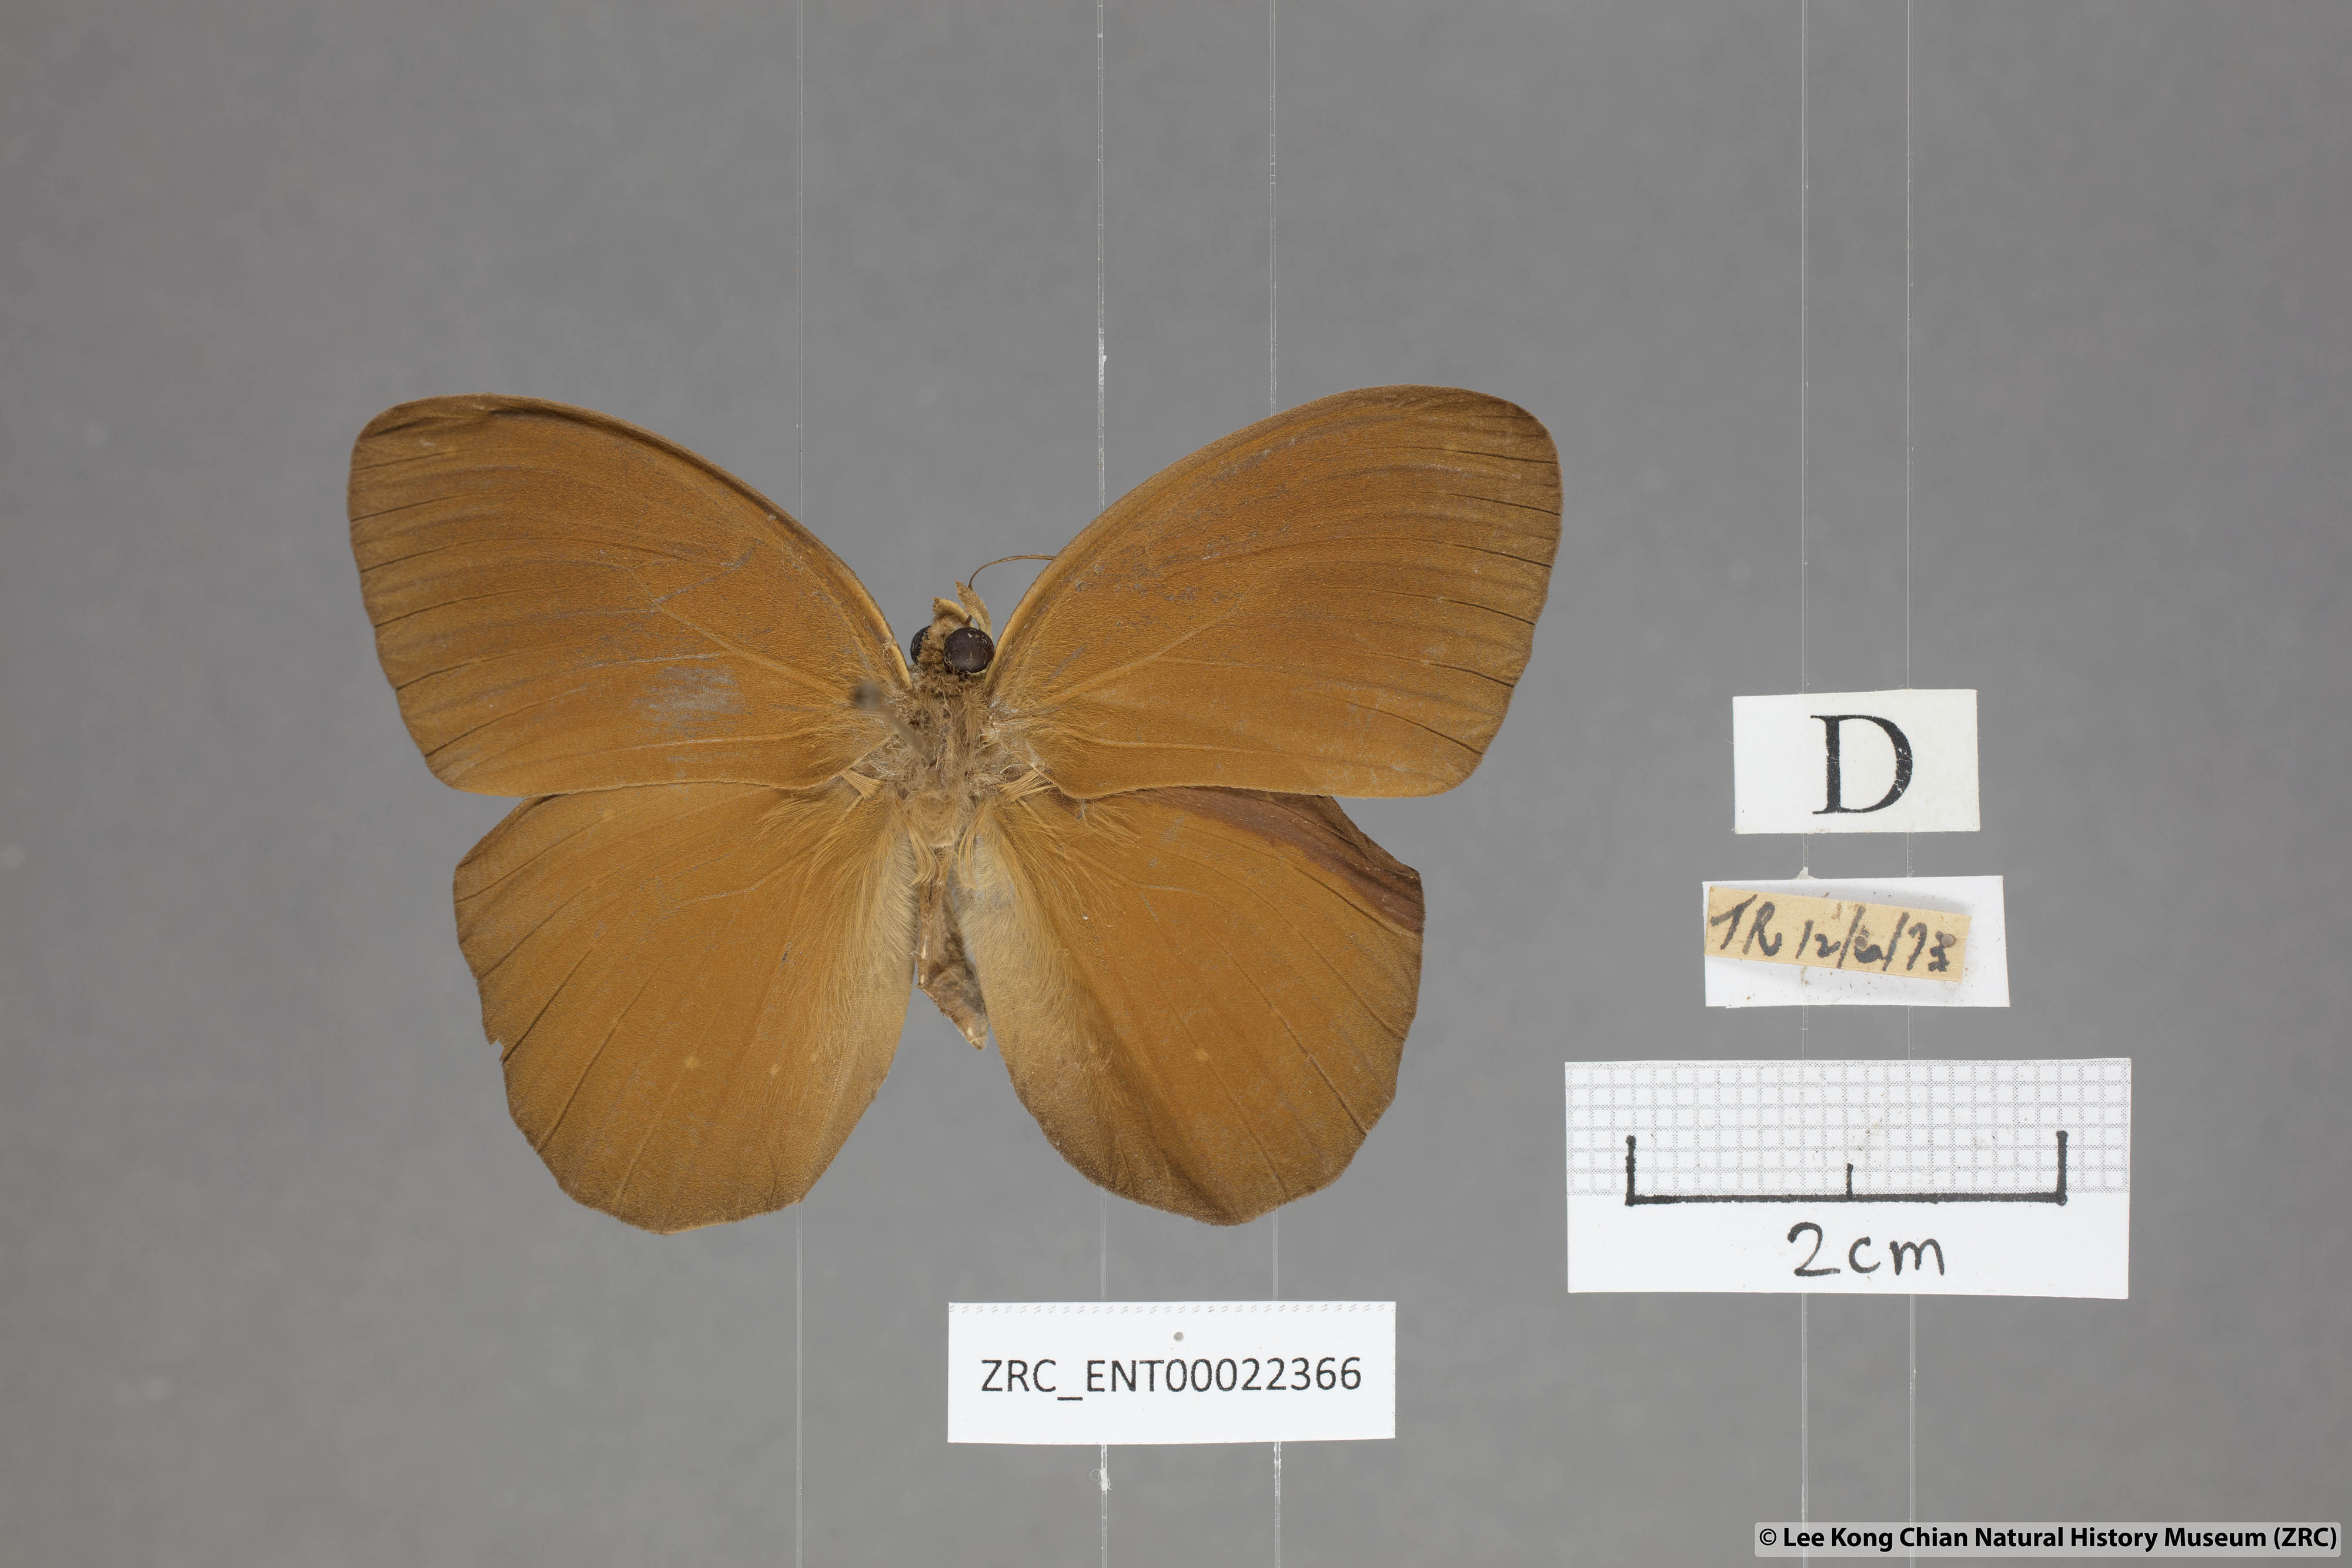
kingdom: Animalia
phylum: Arthropoda
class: Insecta
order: Lepidoptera
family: Nymphalidae
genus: Faunis
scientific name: Faunis canens
